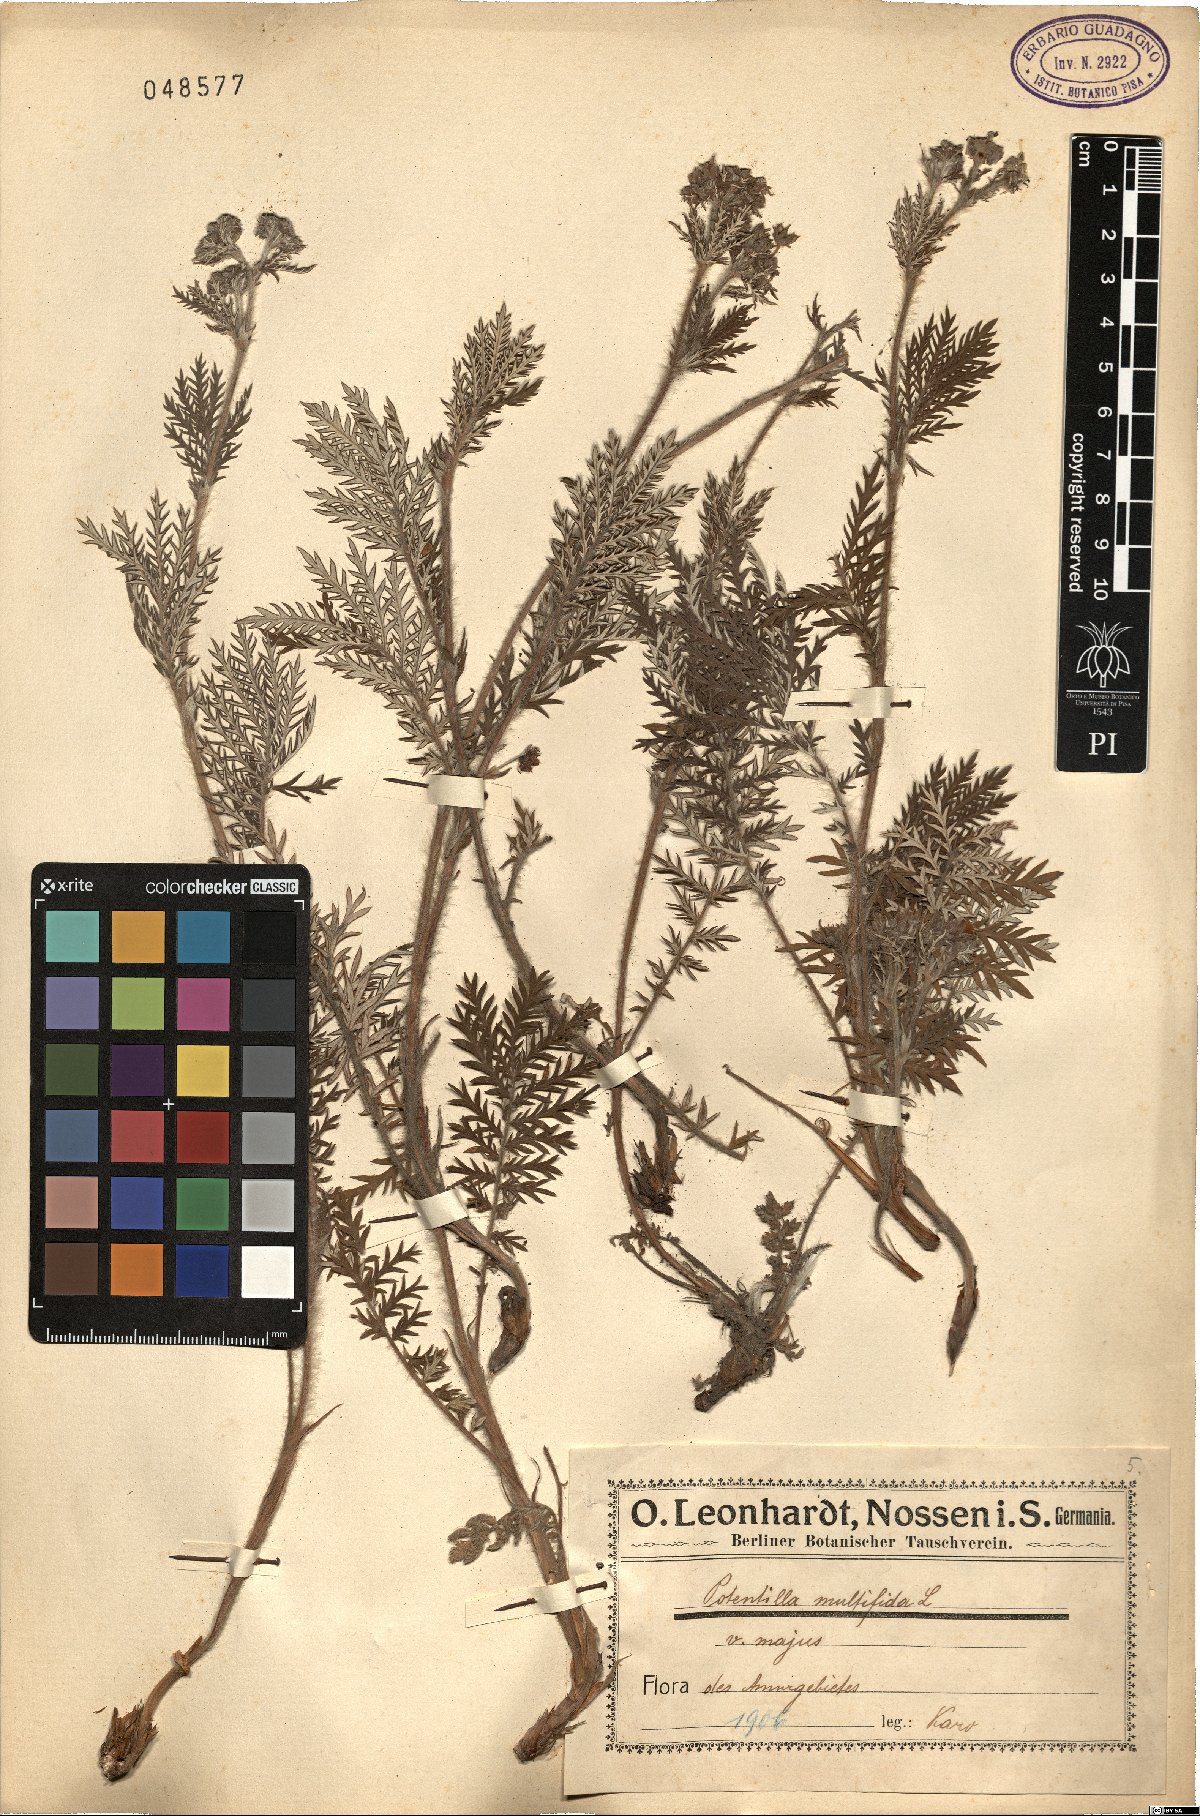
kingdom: Plantae
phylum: Tracheophyta
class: Magnoliopsida
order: Rosales
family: Rosaceae
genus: Potentilla
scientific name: Potentilla multifida
